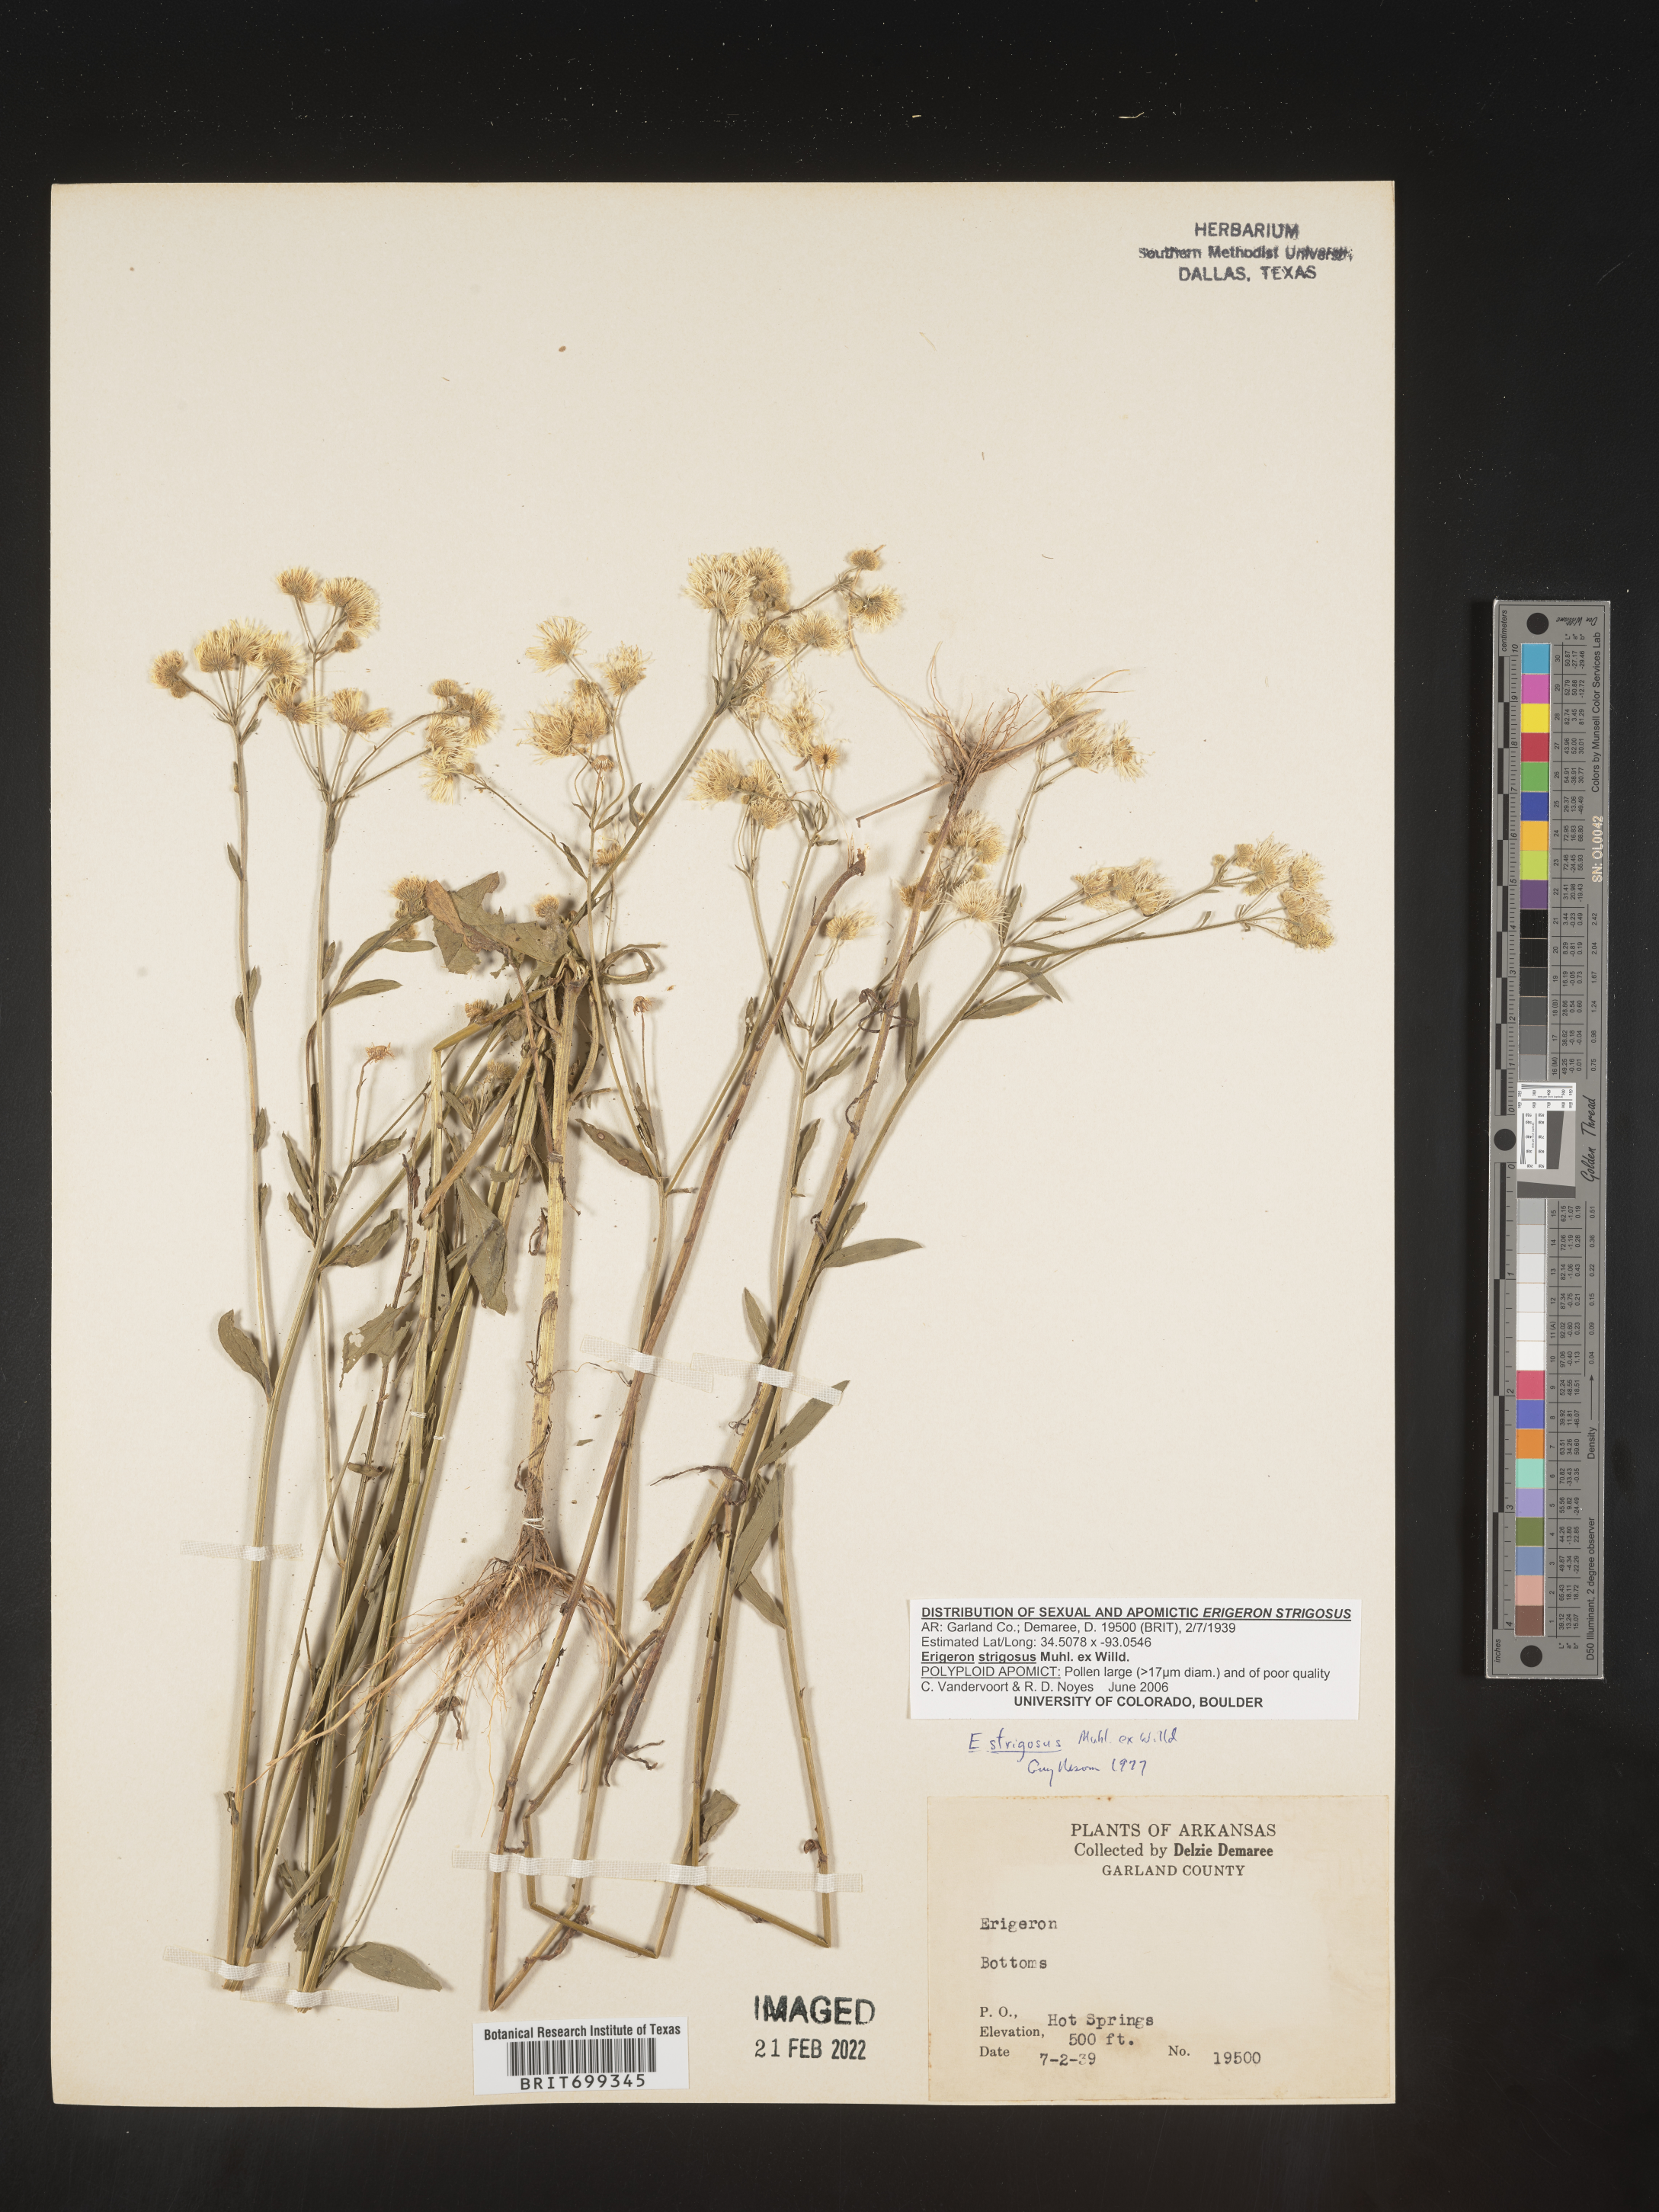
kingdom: Plantae
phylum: Tracheophyta
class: Magnoliopsida
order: Asterales
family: Asteraceae
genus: Erigeron
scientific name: Erigeron strigosus
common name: Common eastern fleabane
